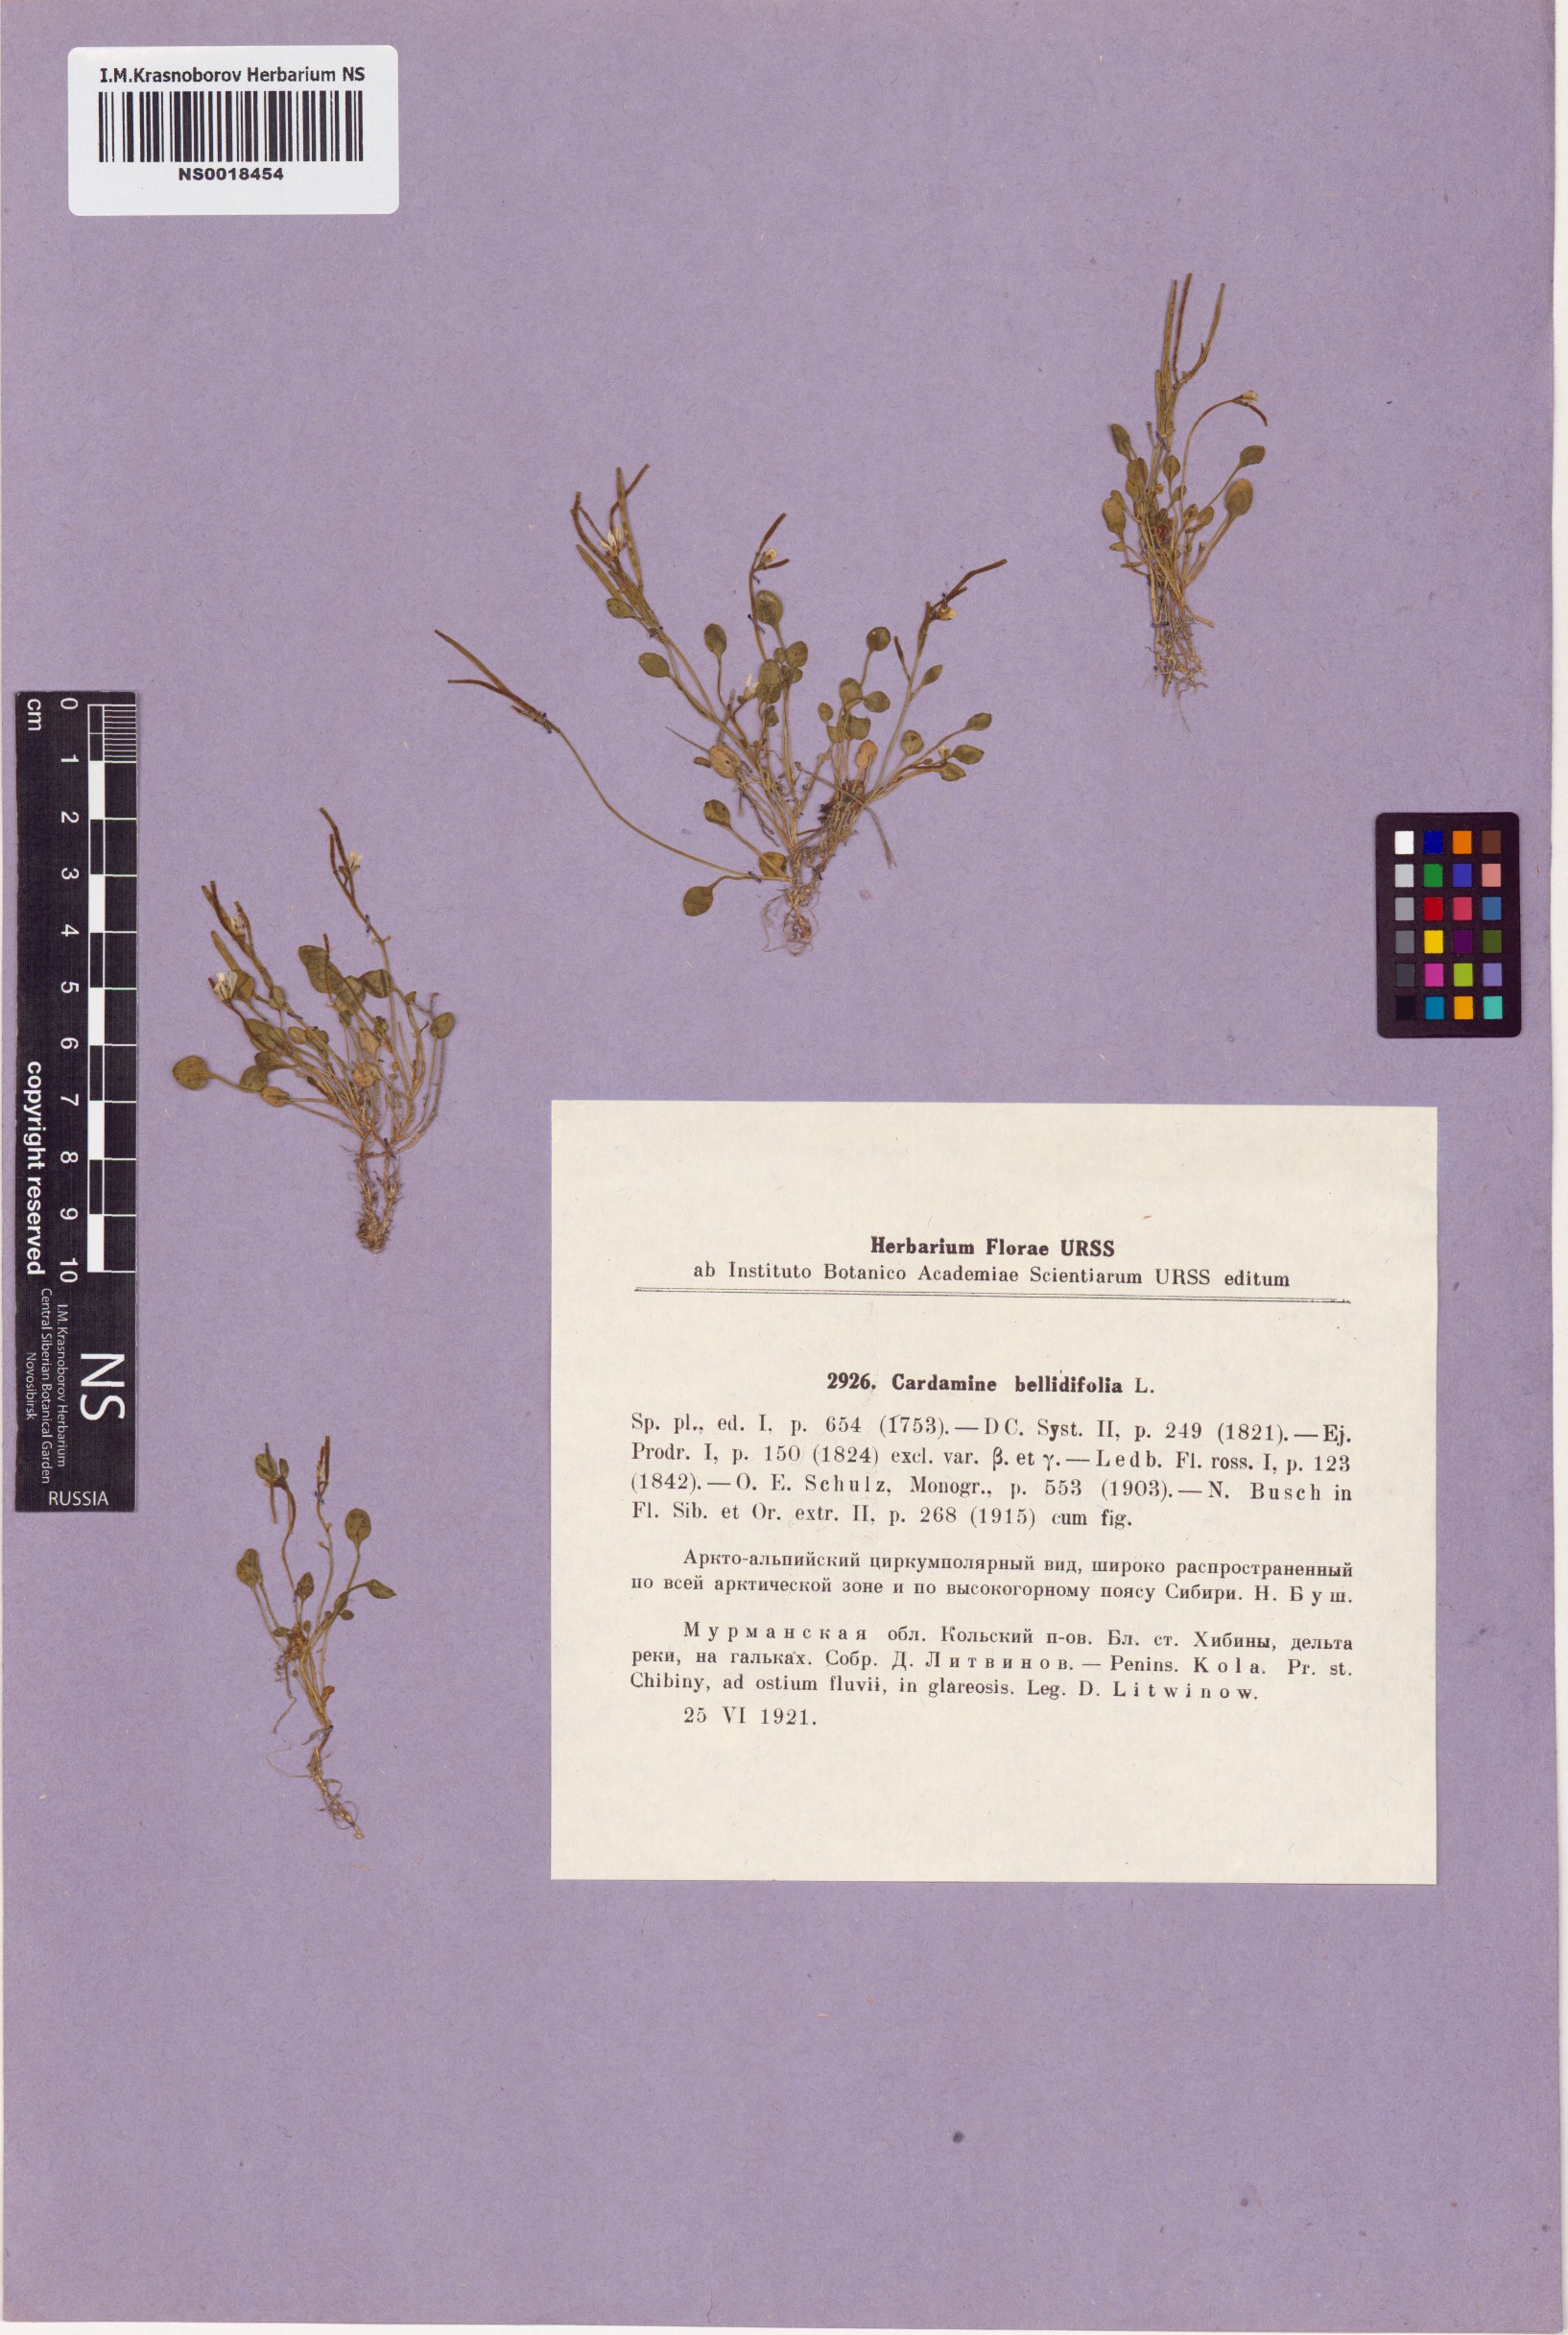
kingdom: Plantae
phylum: Tracheophyta
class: Magnoliopsida
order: Brassicales
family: Brassicaceae
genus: Cardamine
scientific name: Cardamine bellidifolia
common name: Alpine bittercress
